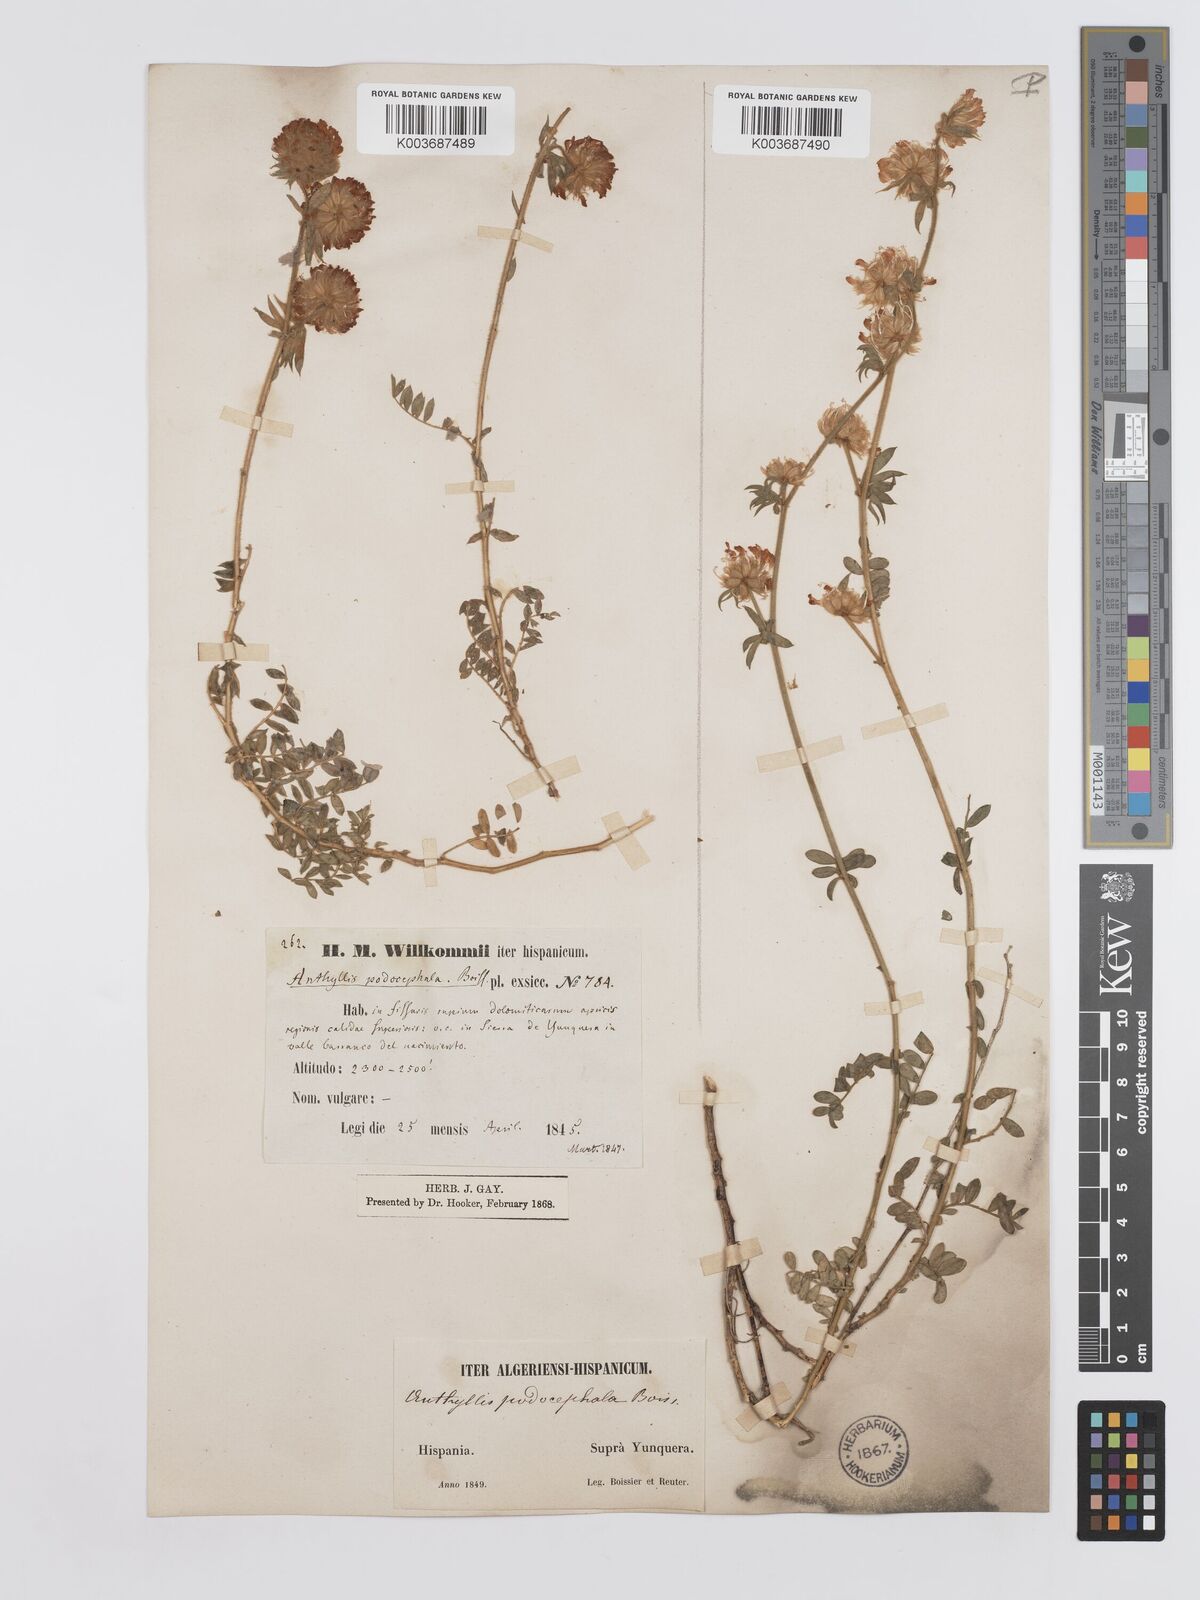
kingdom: Plantae
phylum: Tracheophyta
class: Magnoliopsida
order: Fabales
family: Fabaceae
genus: Anthyllis
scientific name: Anthyllis polycephala
